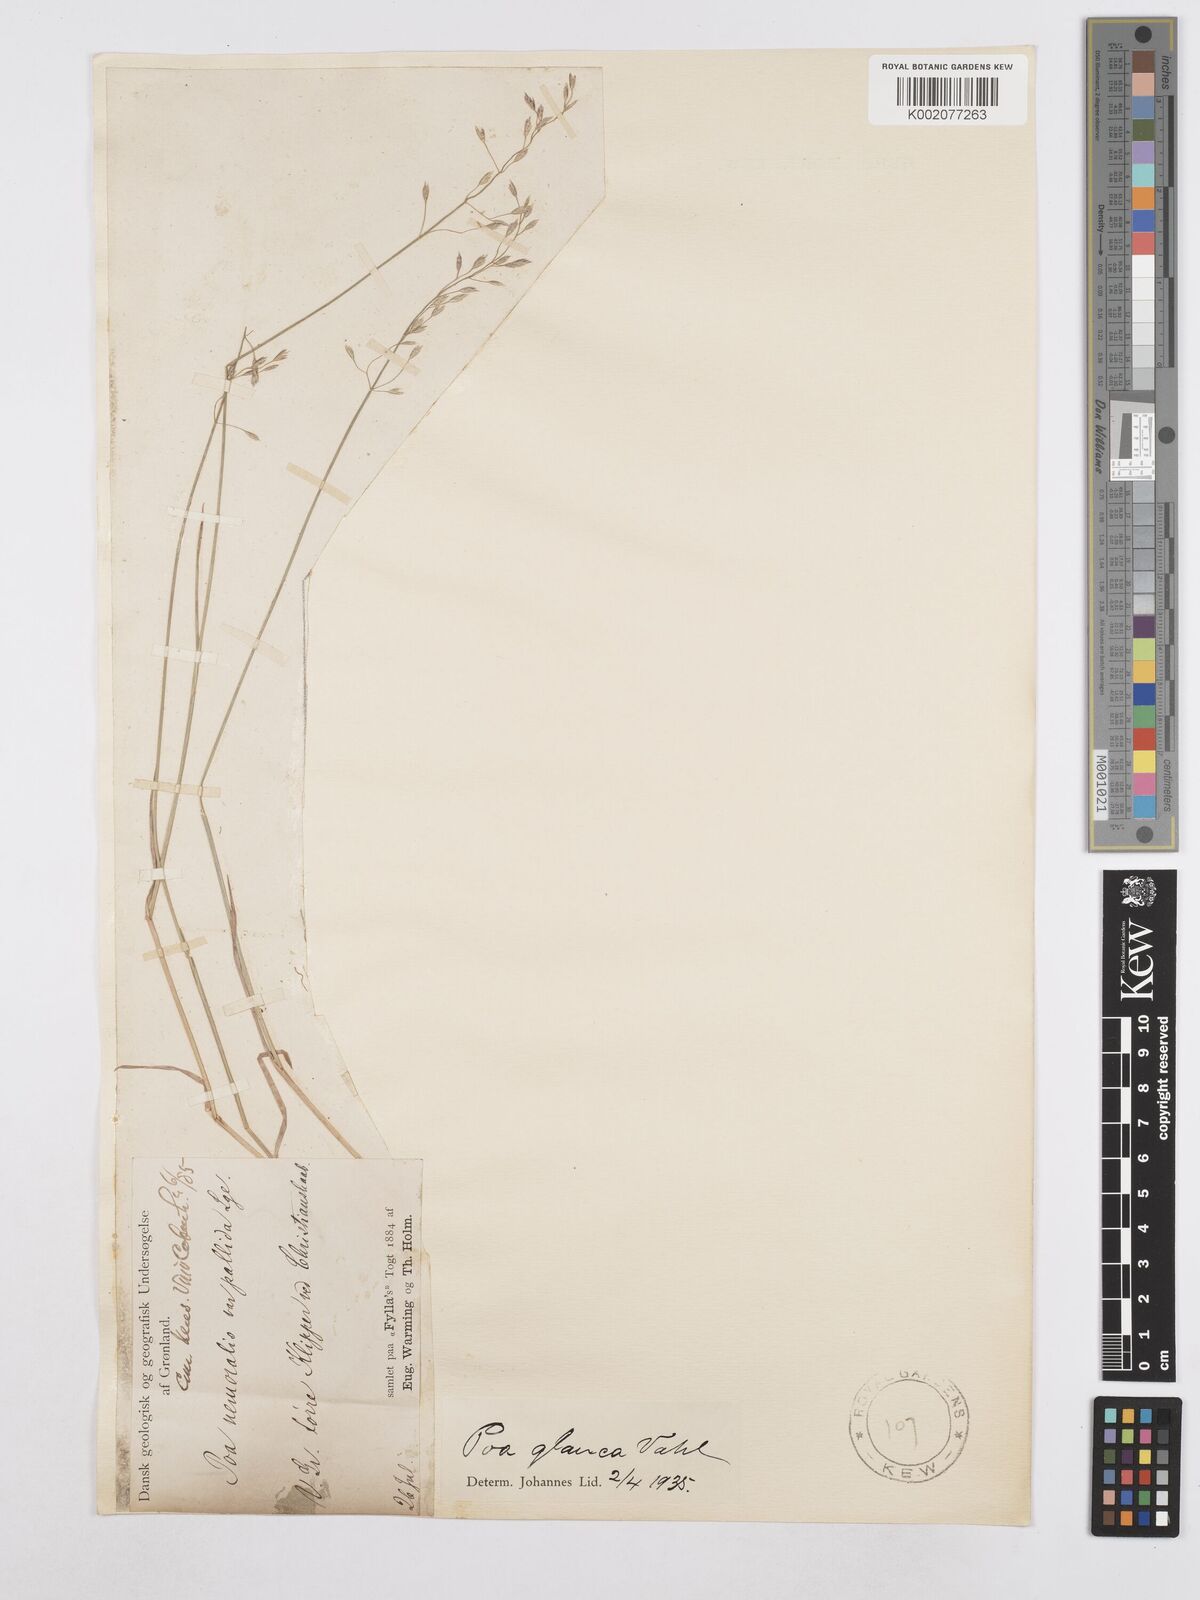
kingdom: Plantae
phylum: Tracheophyta
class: Liliopsida
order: Poales
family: Poaceae
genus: Poa
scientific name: Poa glauca
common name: Glaucous bluegrass
